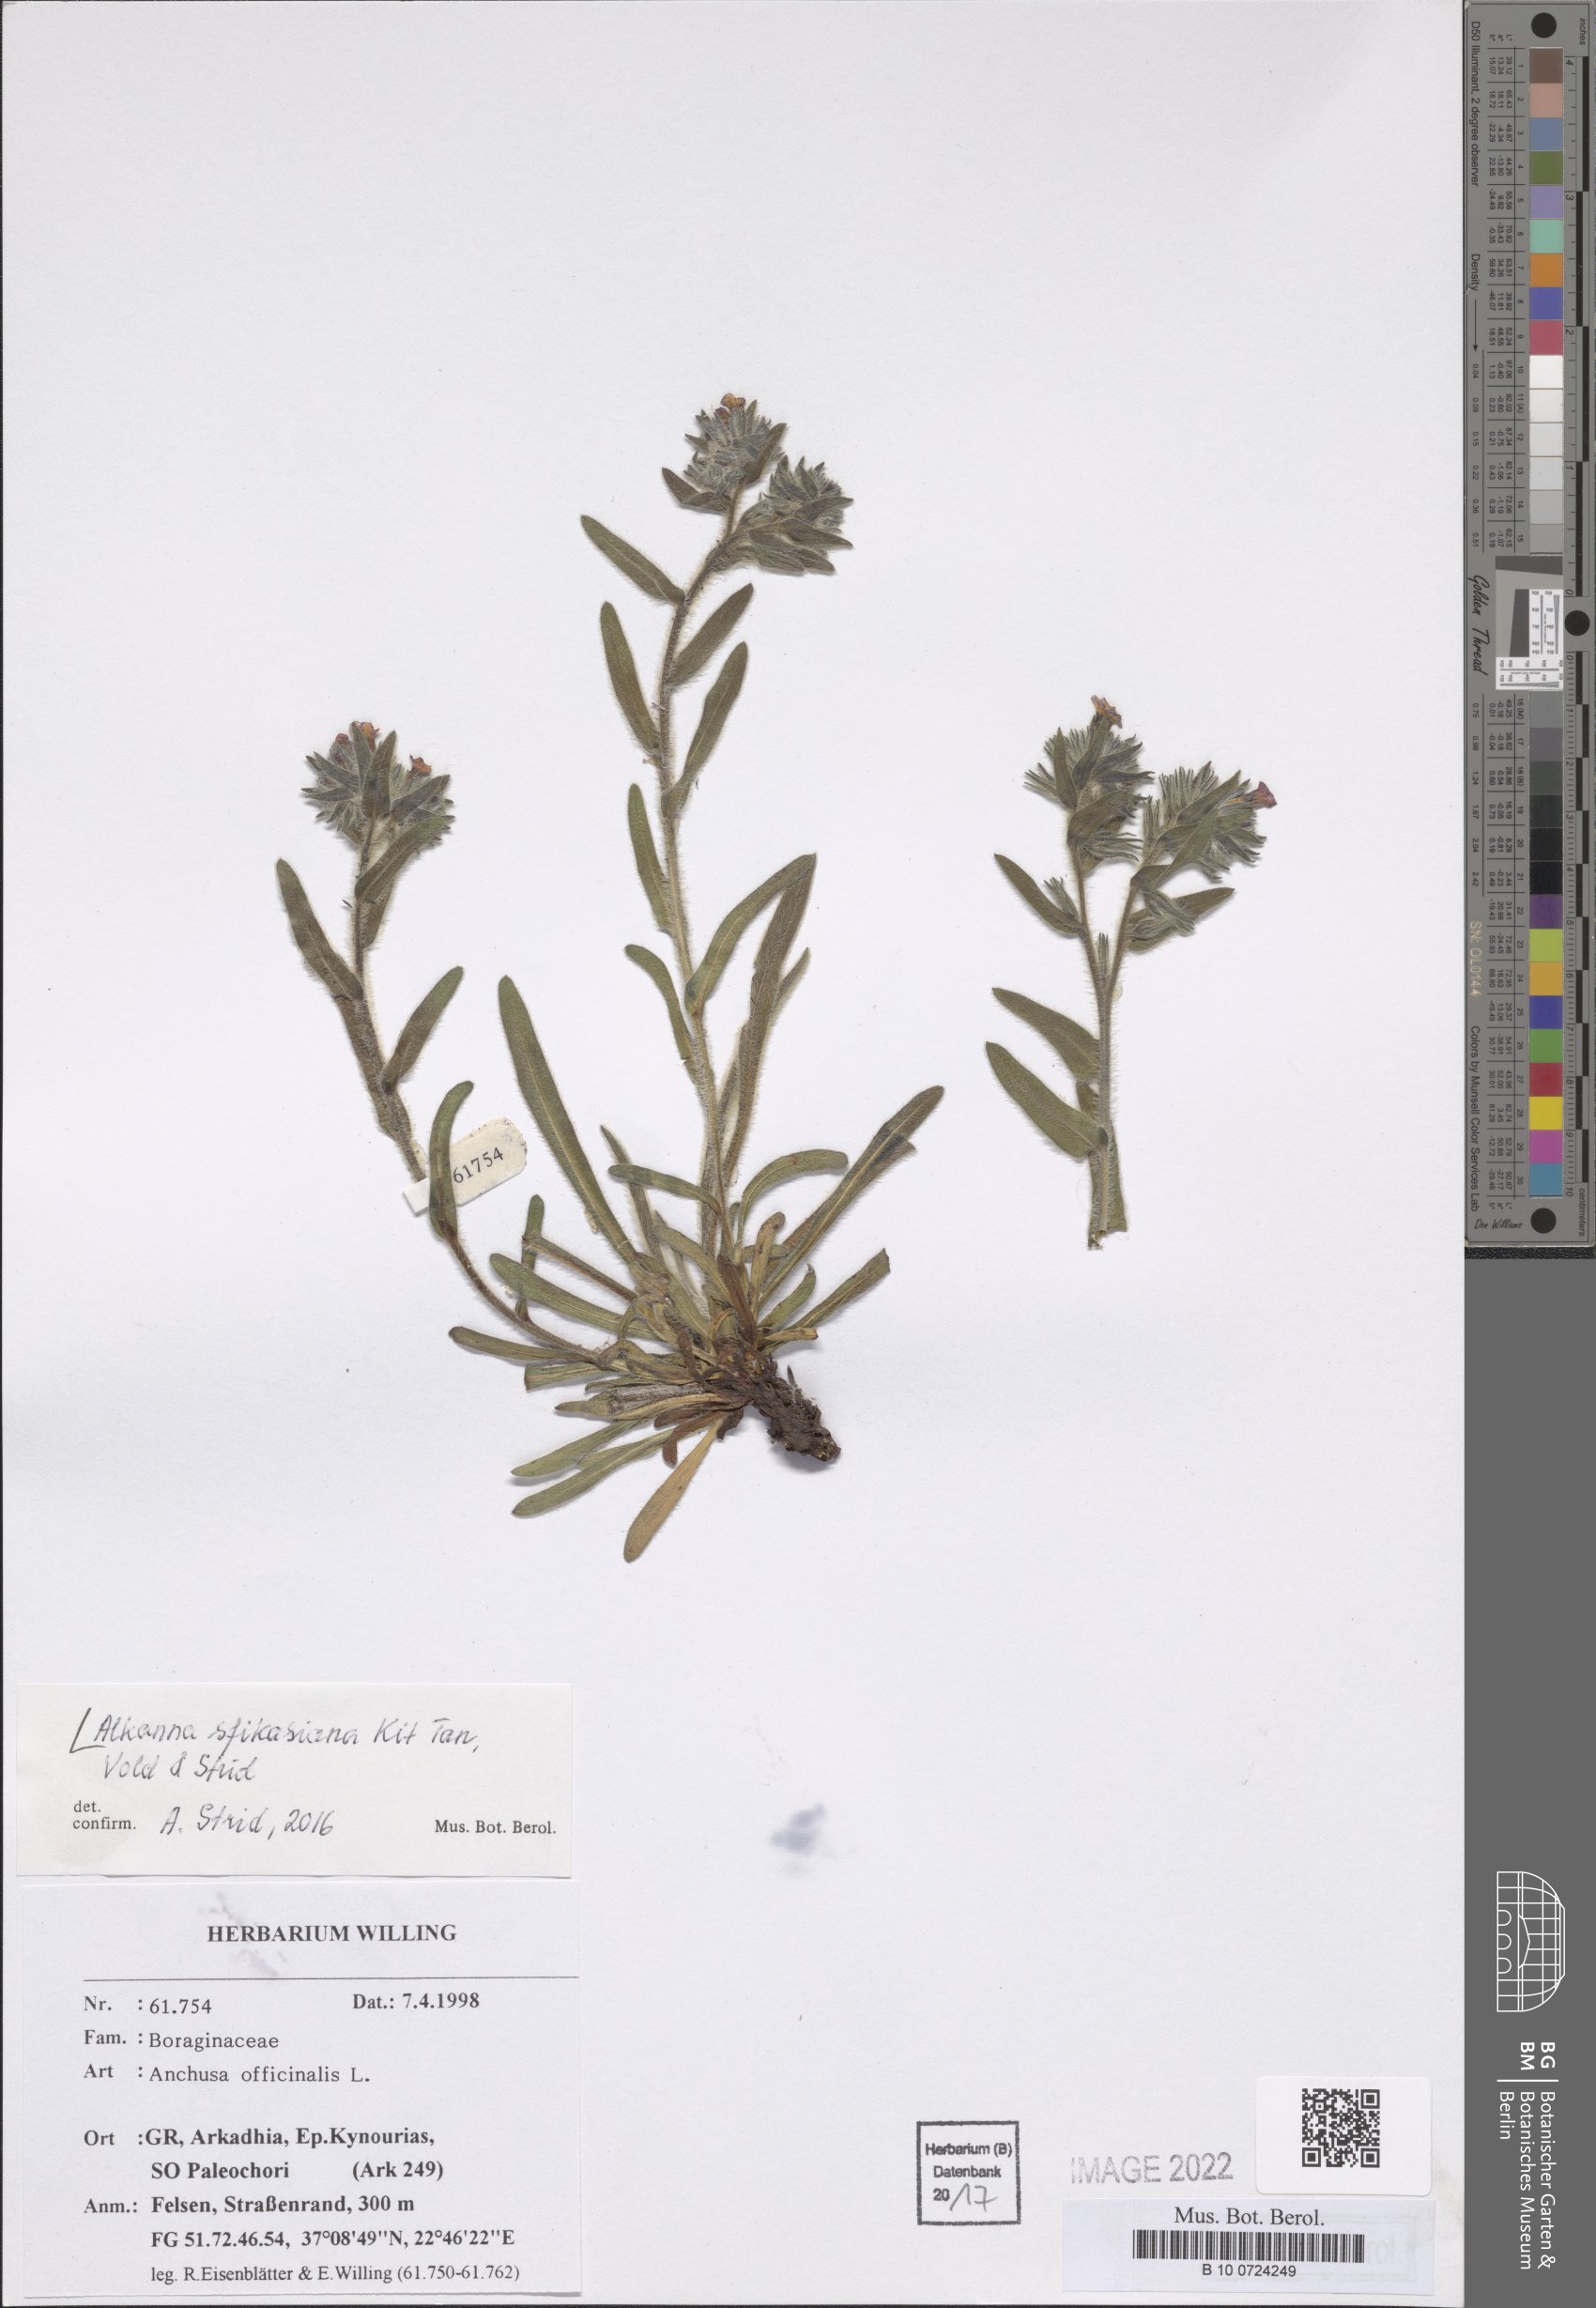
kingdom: Plantae
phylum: Tracheophyta
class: Magnoliopsida
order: Boraginales
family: Boraginaceae
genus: Alkanna
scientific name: Alkanna sfikasiana
